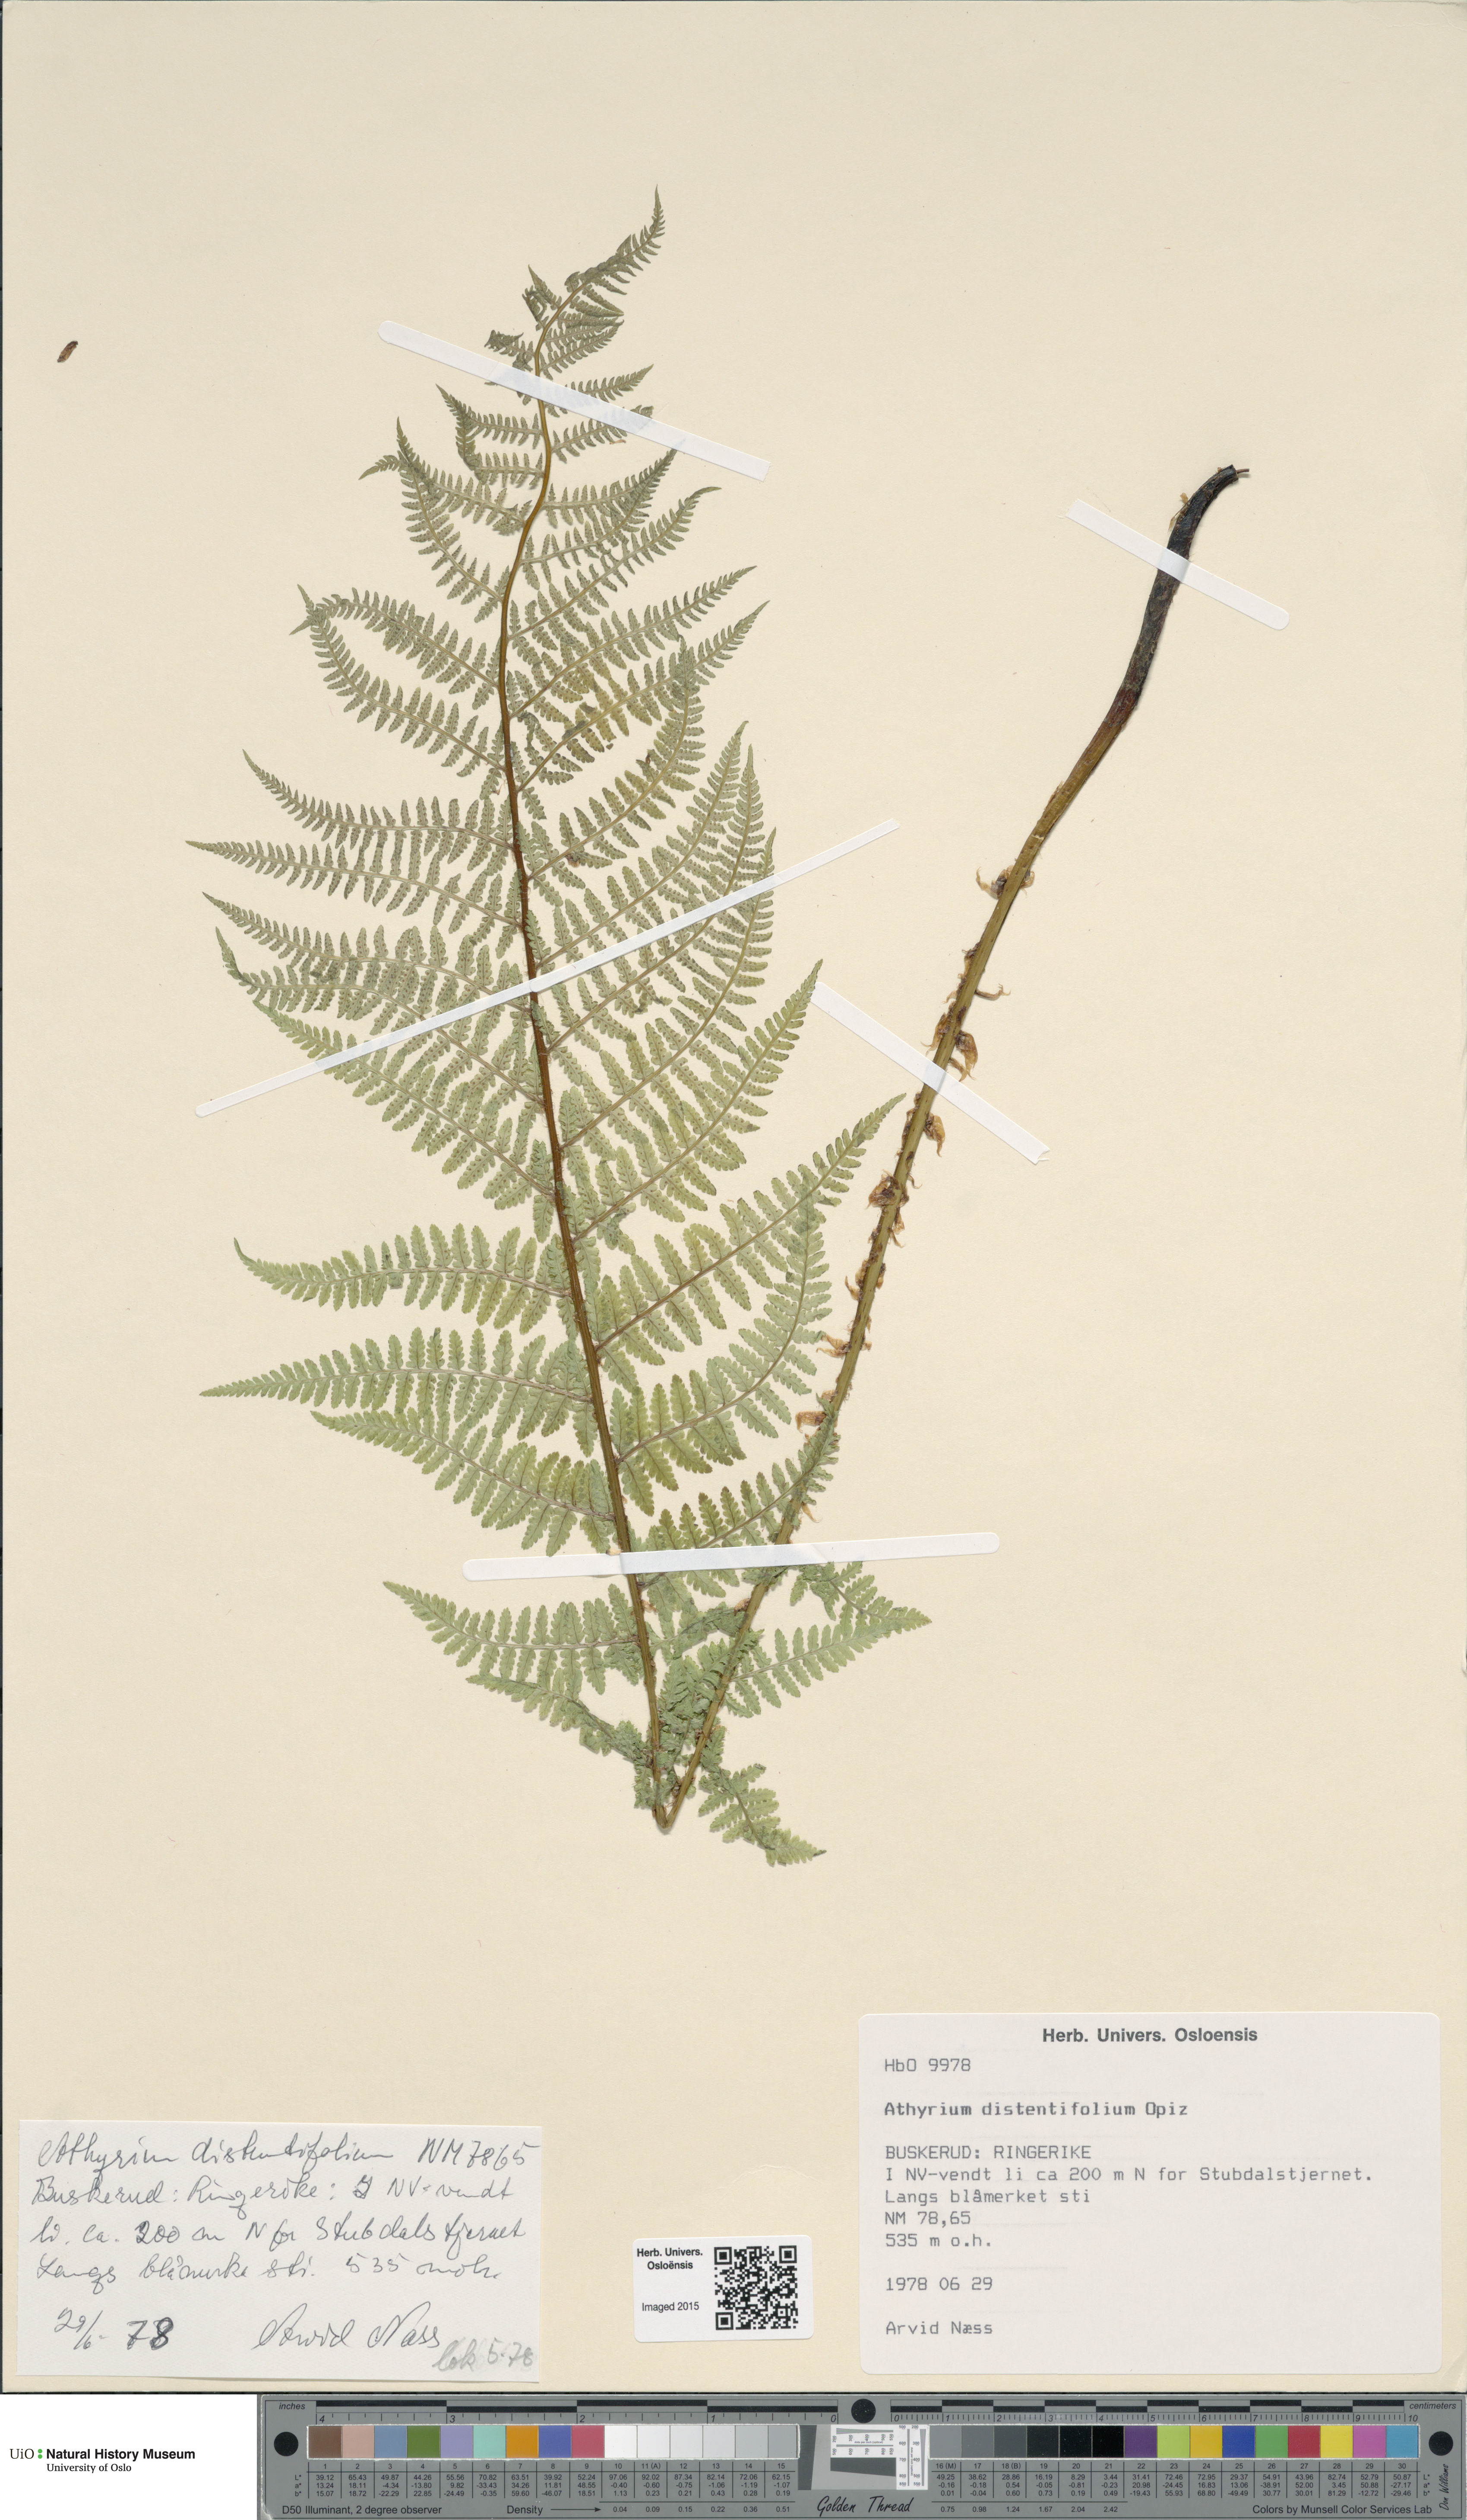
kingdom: Plantae
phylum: Tracheophyta
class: Polypodiopsida
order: Polypodiales
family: Athyriaceae
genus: Pseudathyrium
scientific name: Pseudathyrium alpestre
